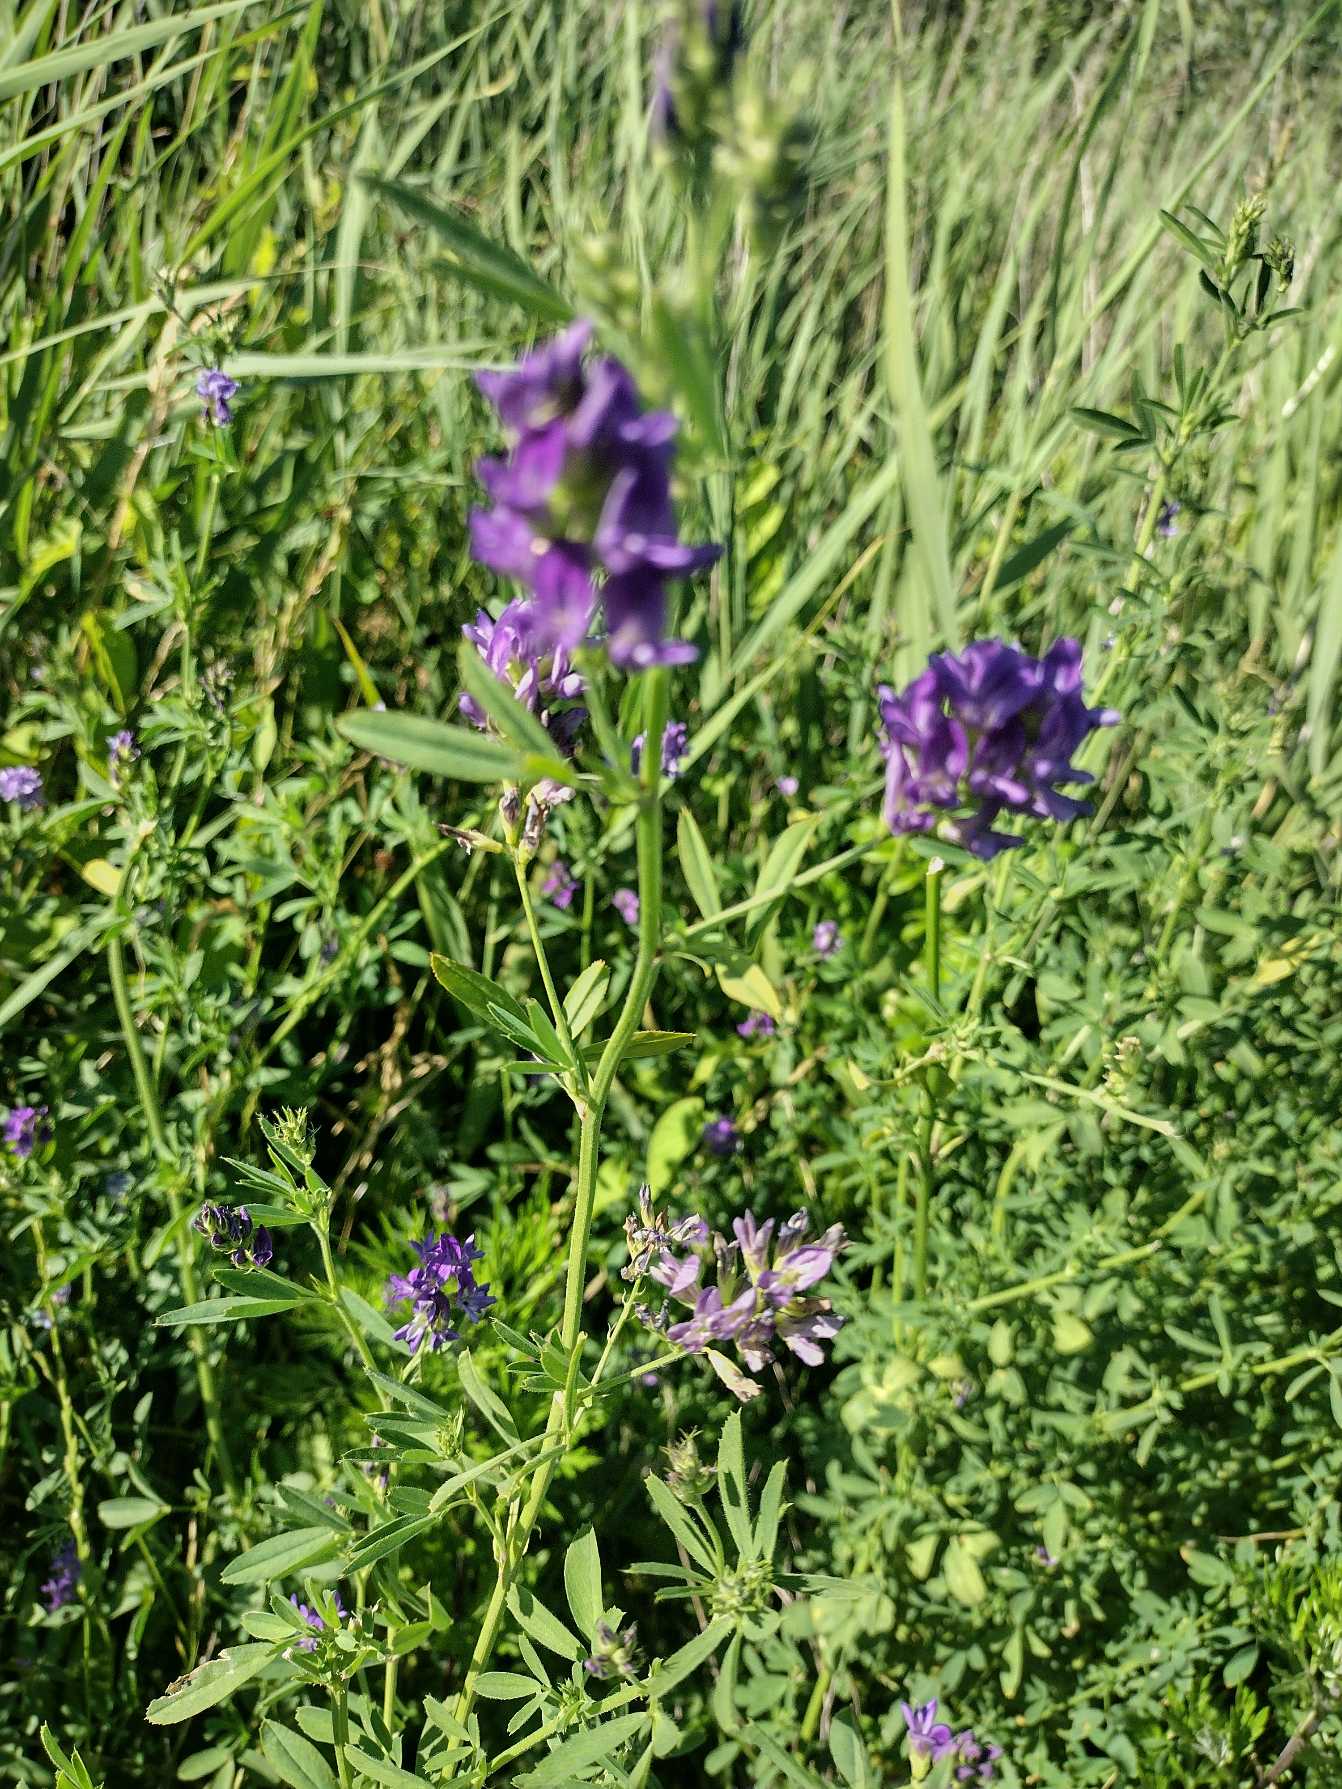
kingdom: Plantae
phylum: Tracheophyta
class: Magnoliopsida
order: Fabales
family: Fabaceae
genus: Medicago
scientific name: Medicago sativa
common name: Lucerne
